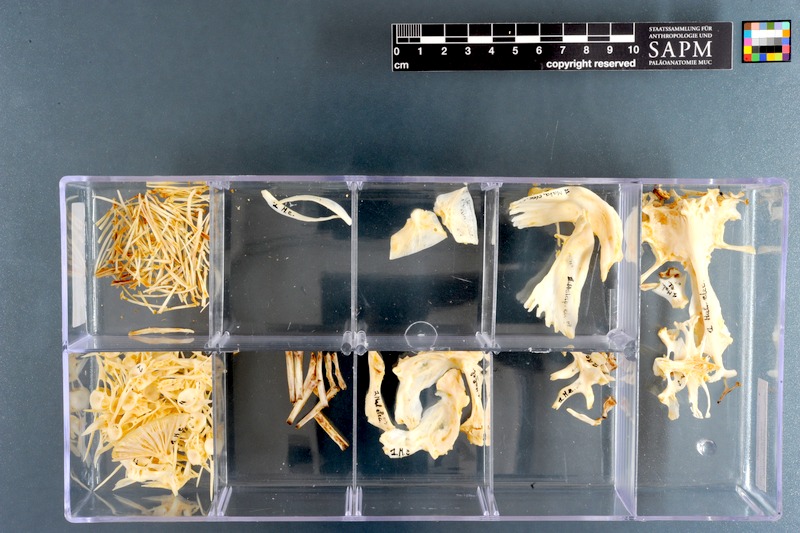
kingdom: Animalia
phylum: Chordata
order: Siluriformes
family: Malapteruridae
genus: Malapterurus
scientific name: Malapterurus electricus
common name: African electric catfish
